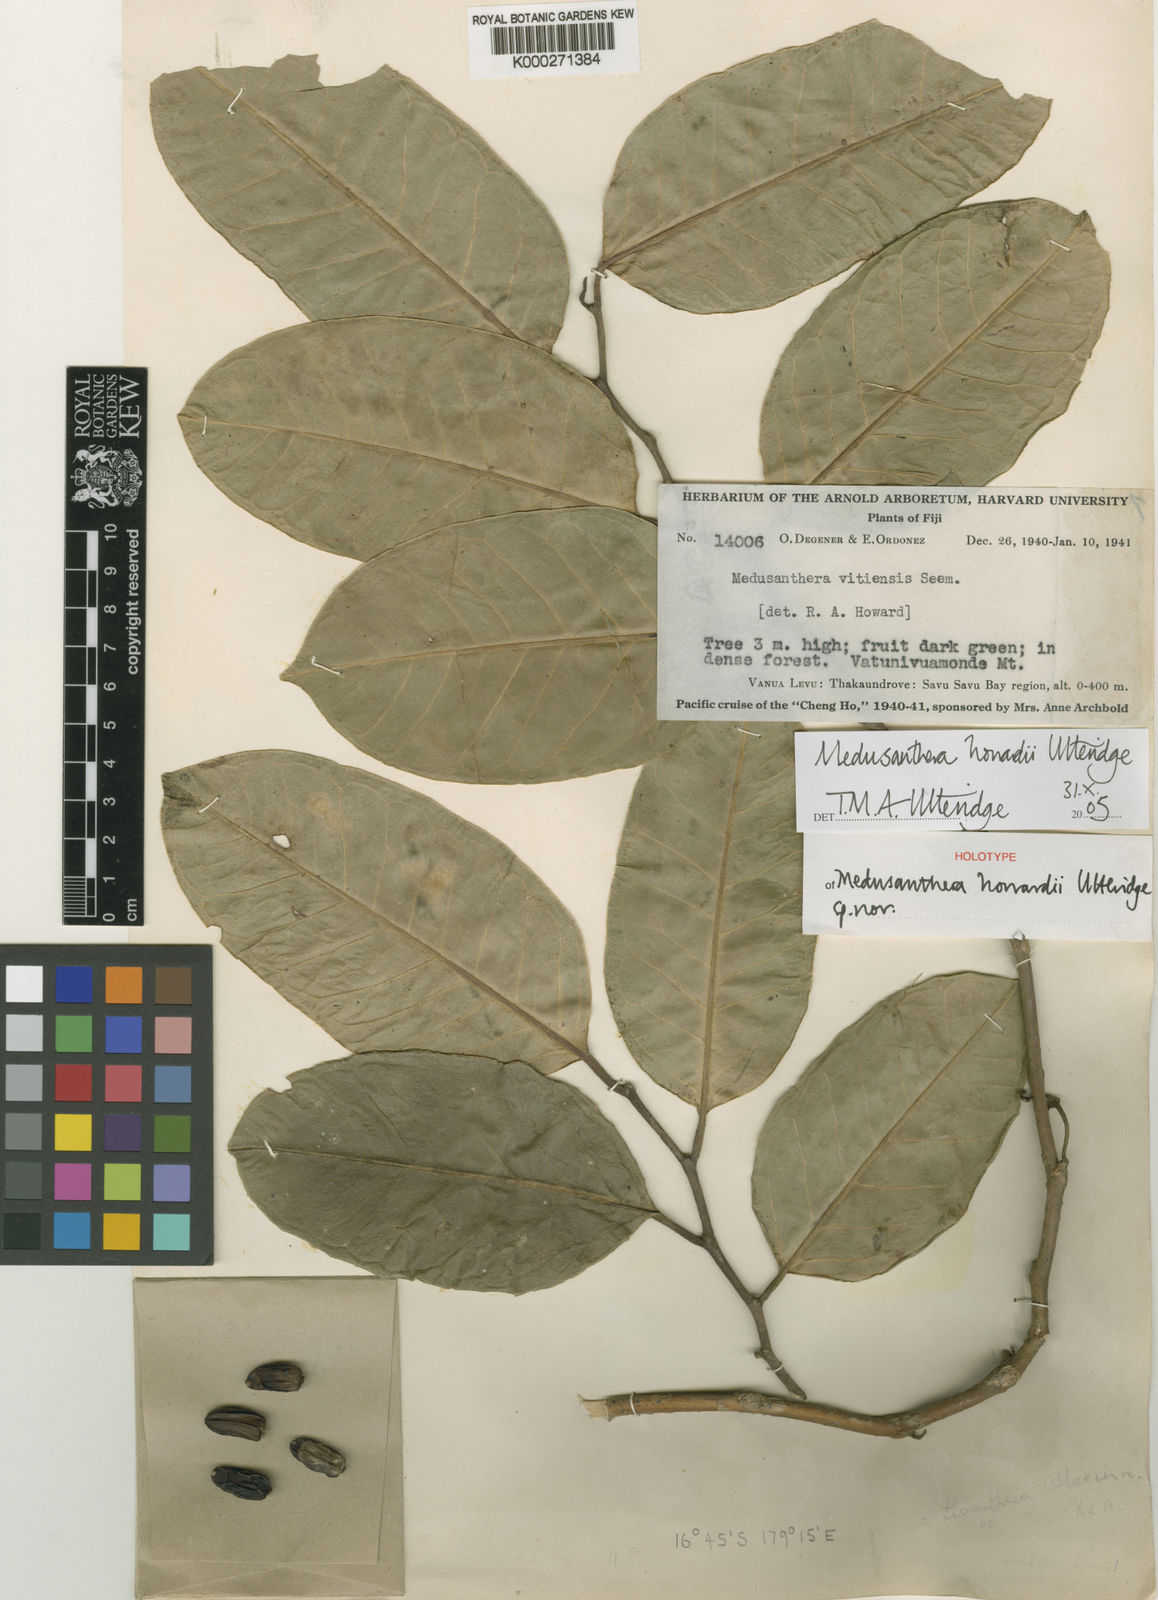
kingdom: Plantae
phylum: Tracheophyta
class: Magnoliopsida
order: Cardiopteridales
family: Stemonuraceae
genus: Medusanthera
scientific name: Medusanthera howardii
